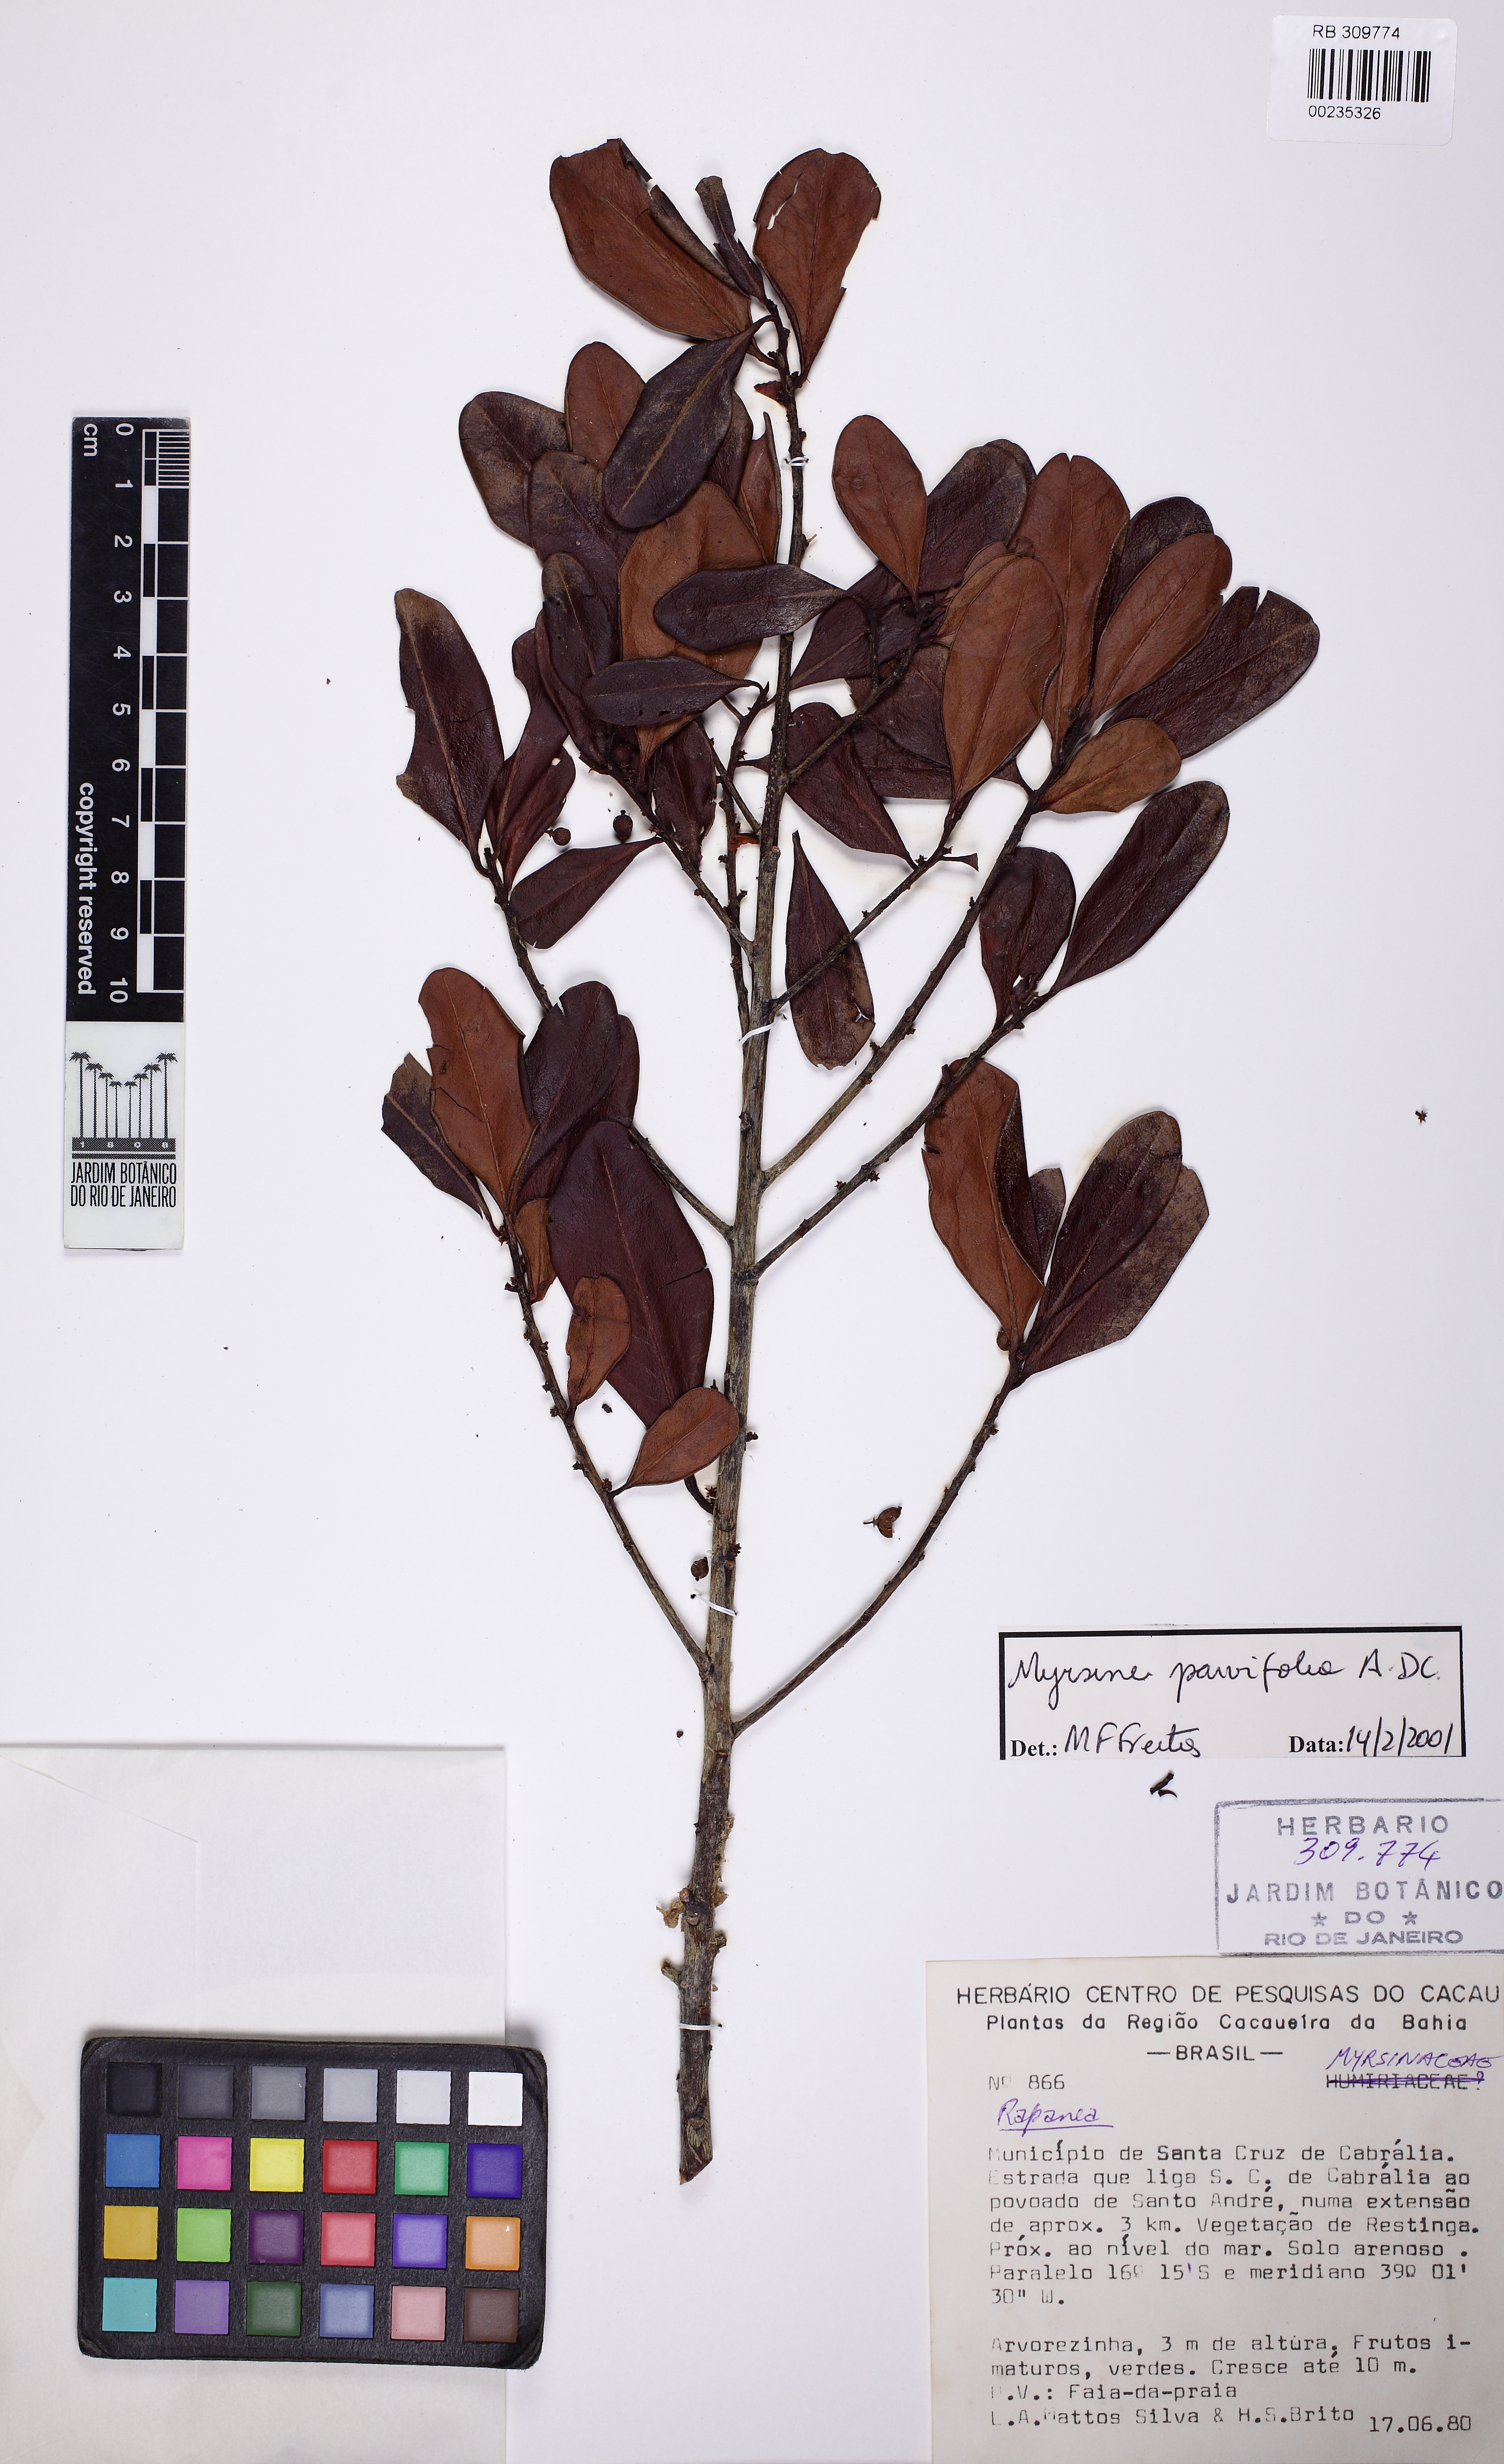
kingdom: Plantae
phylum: Tracheophyta
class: Magnoliopsida
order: Ericales
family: Primulaceae
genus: Myrsine
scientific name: Myrsine parvifolia
